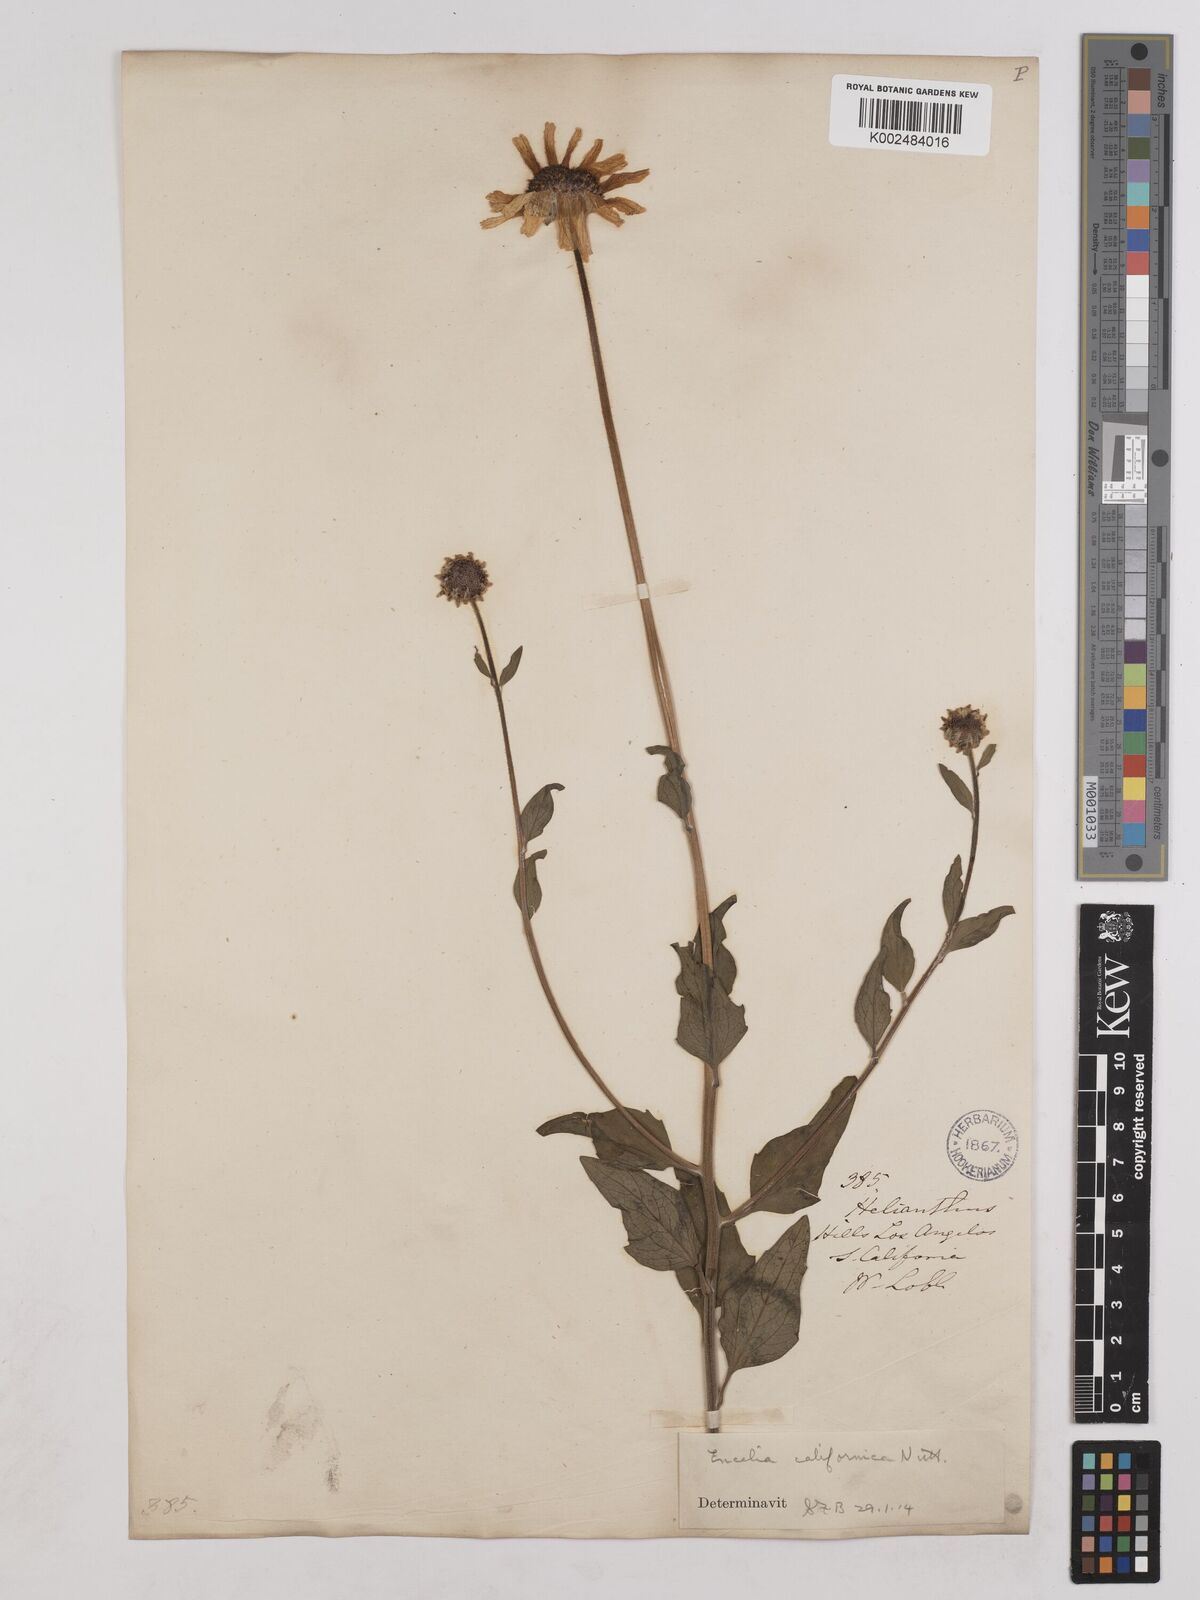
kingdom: Plantae
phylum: Tracheophyta
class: Magnoliopsida
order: Asterales
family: Asteraceae
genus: Encelia
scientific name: Encelia californica
